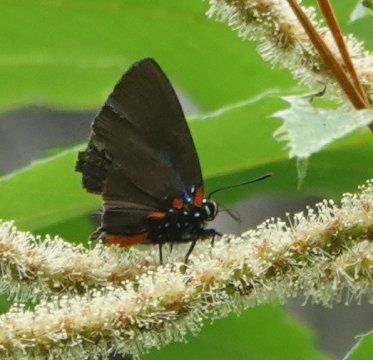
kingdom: Animalia
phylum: Arthropoda
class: Insecta
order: Lepidoptera
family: Lycaenidae
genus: Atlides
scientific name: Atlides halesus
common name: Great Purple Hairstreak
